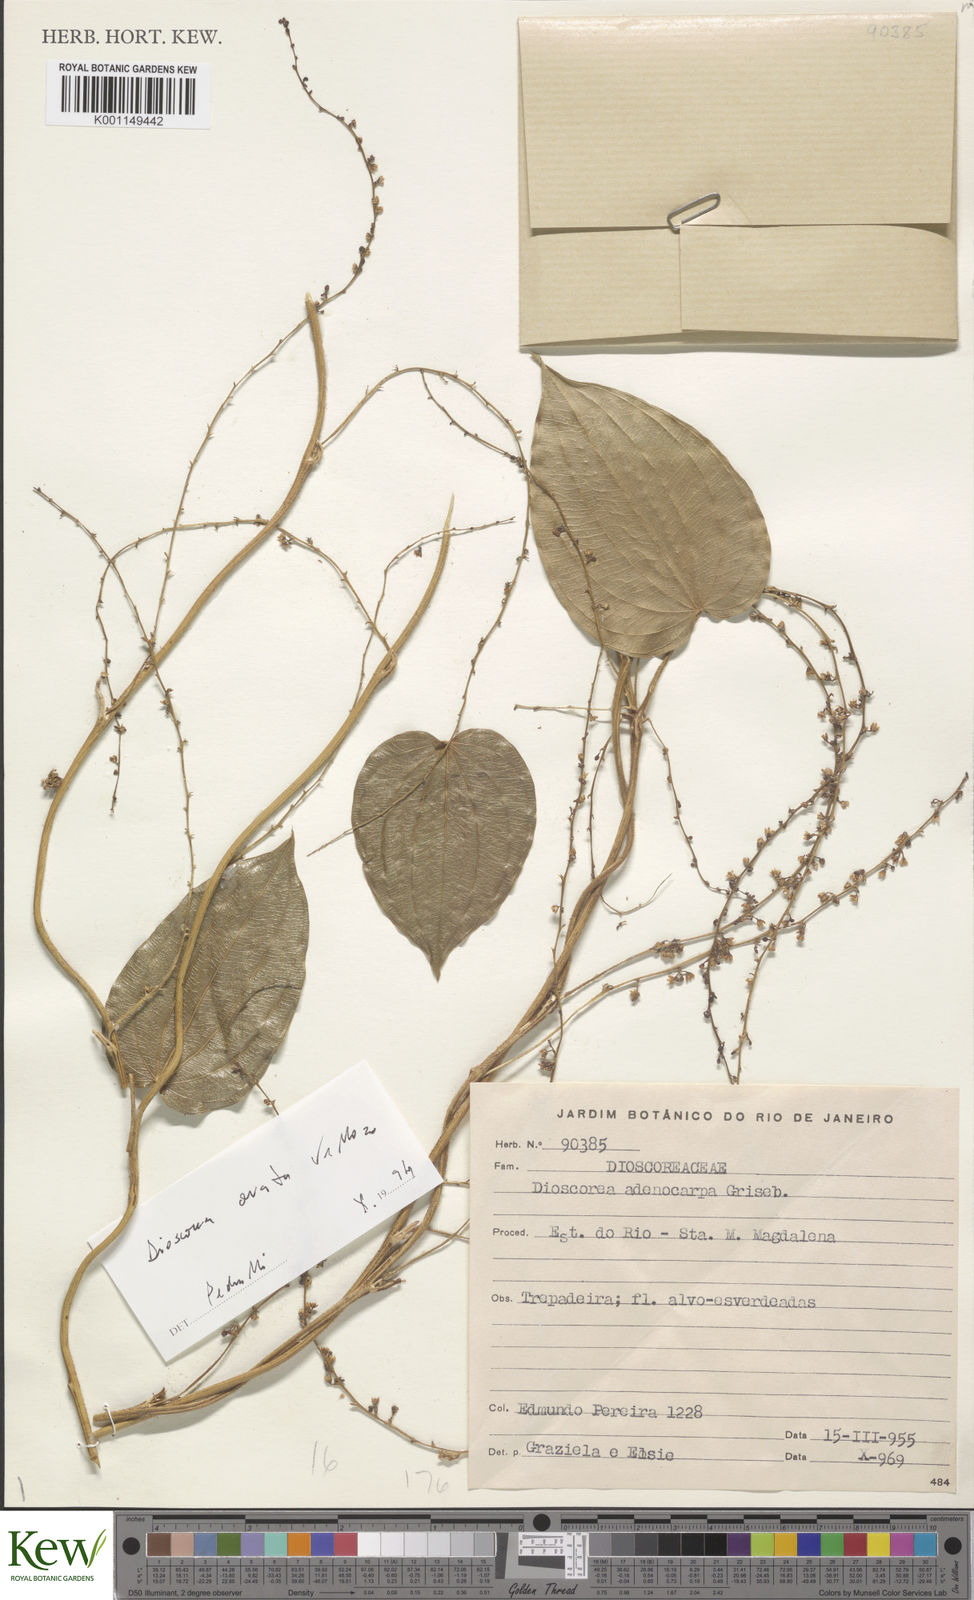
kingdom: Plantae
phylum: Tracheophyta
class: Liliopsida
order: Dioscoreales
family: Dioscoreaceae
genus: Dioscorea
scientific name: Dioscorea campanulata
